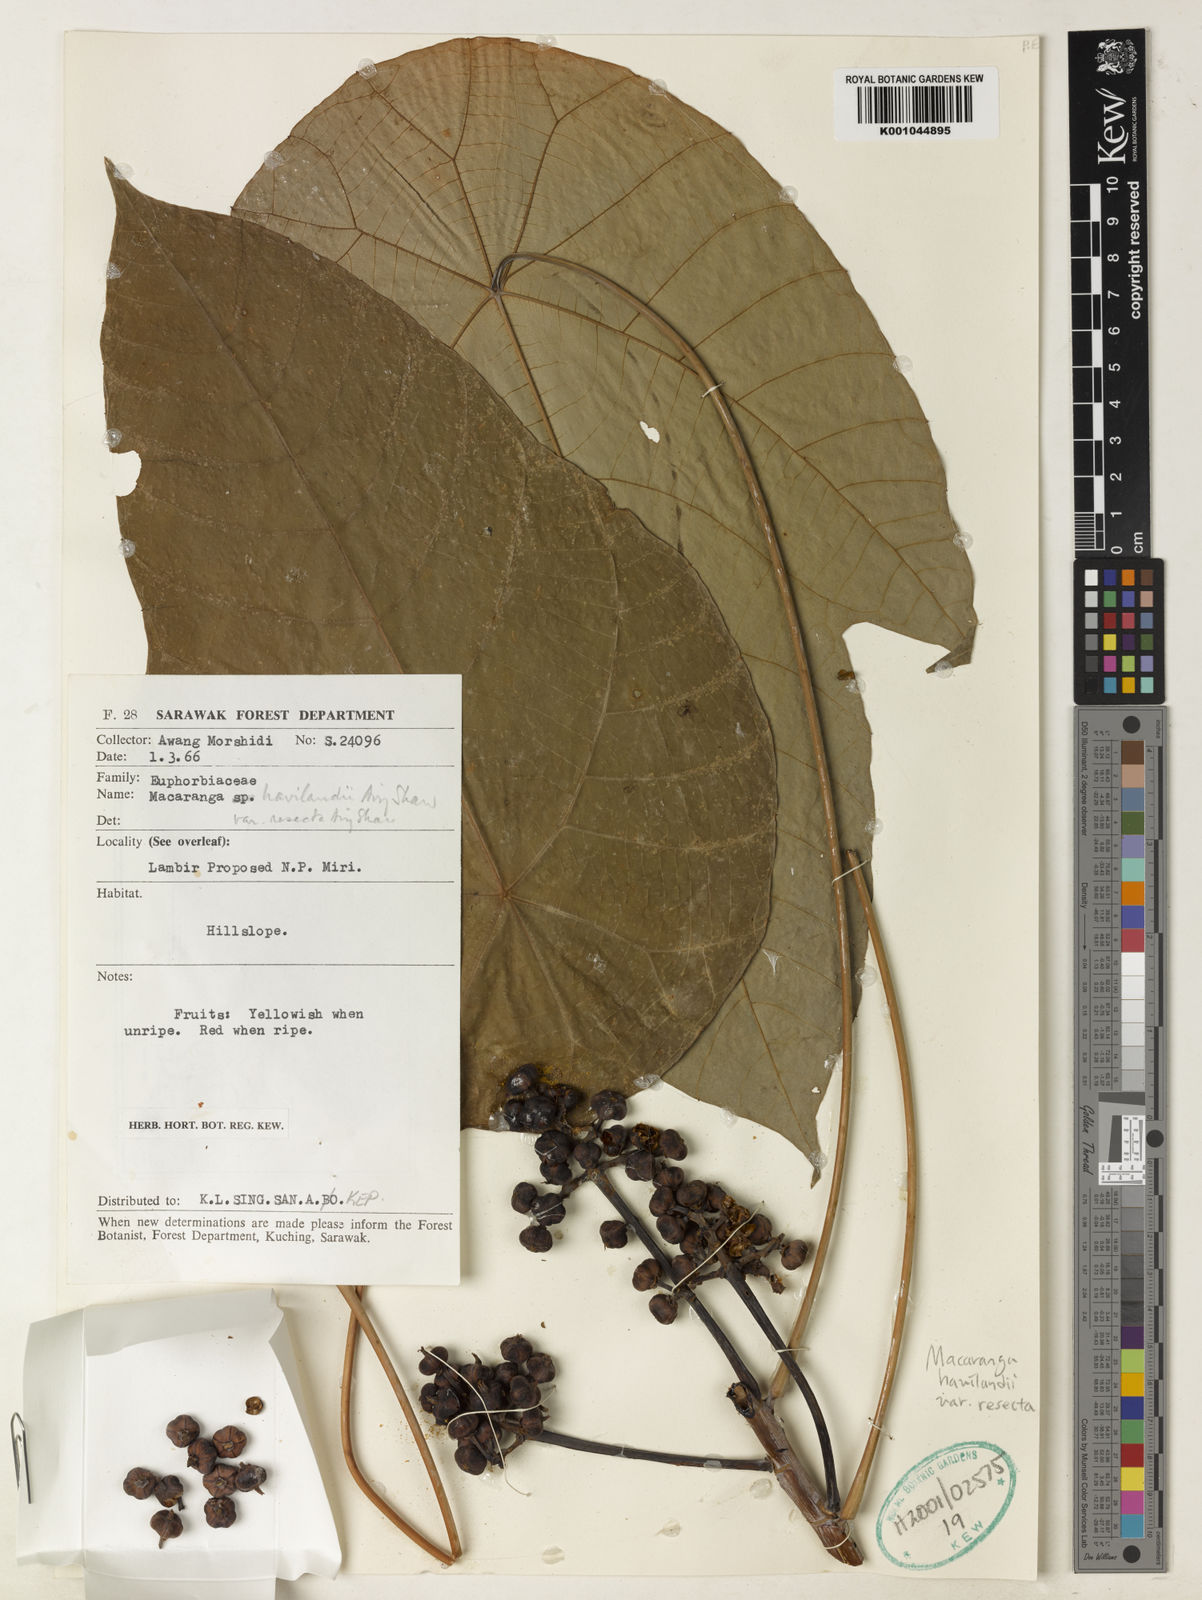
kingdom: Plantae
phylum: Tracheophyta
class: Magnoliopsida
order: Malpighiales
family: Euphorbiaceae
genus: Macaranga
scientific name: Macaranga havilandii
